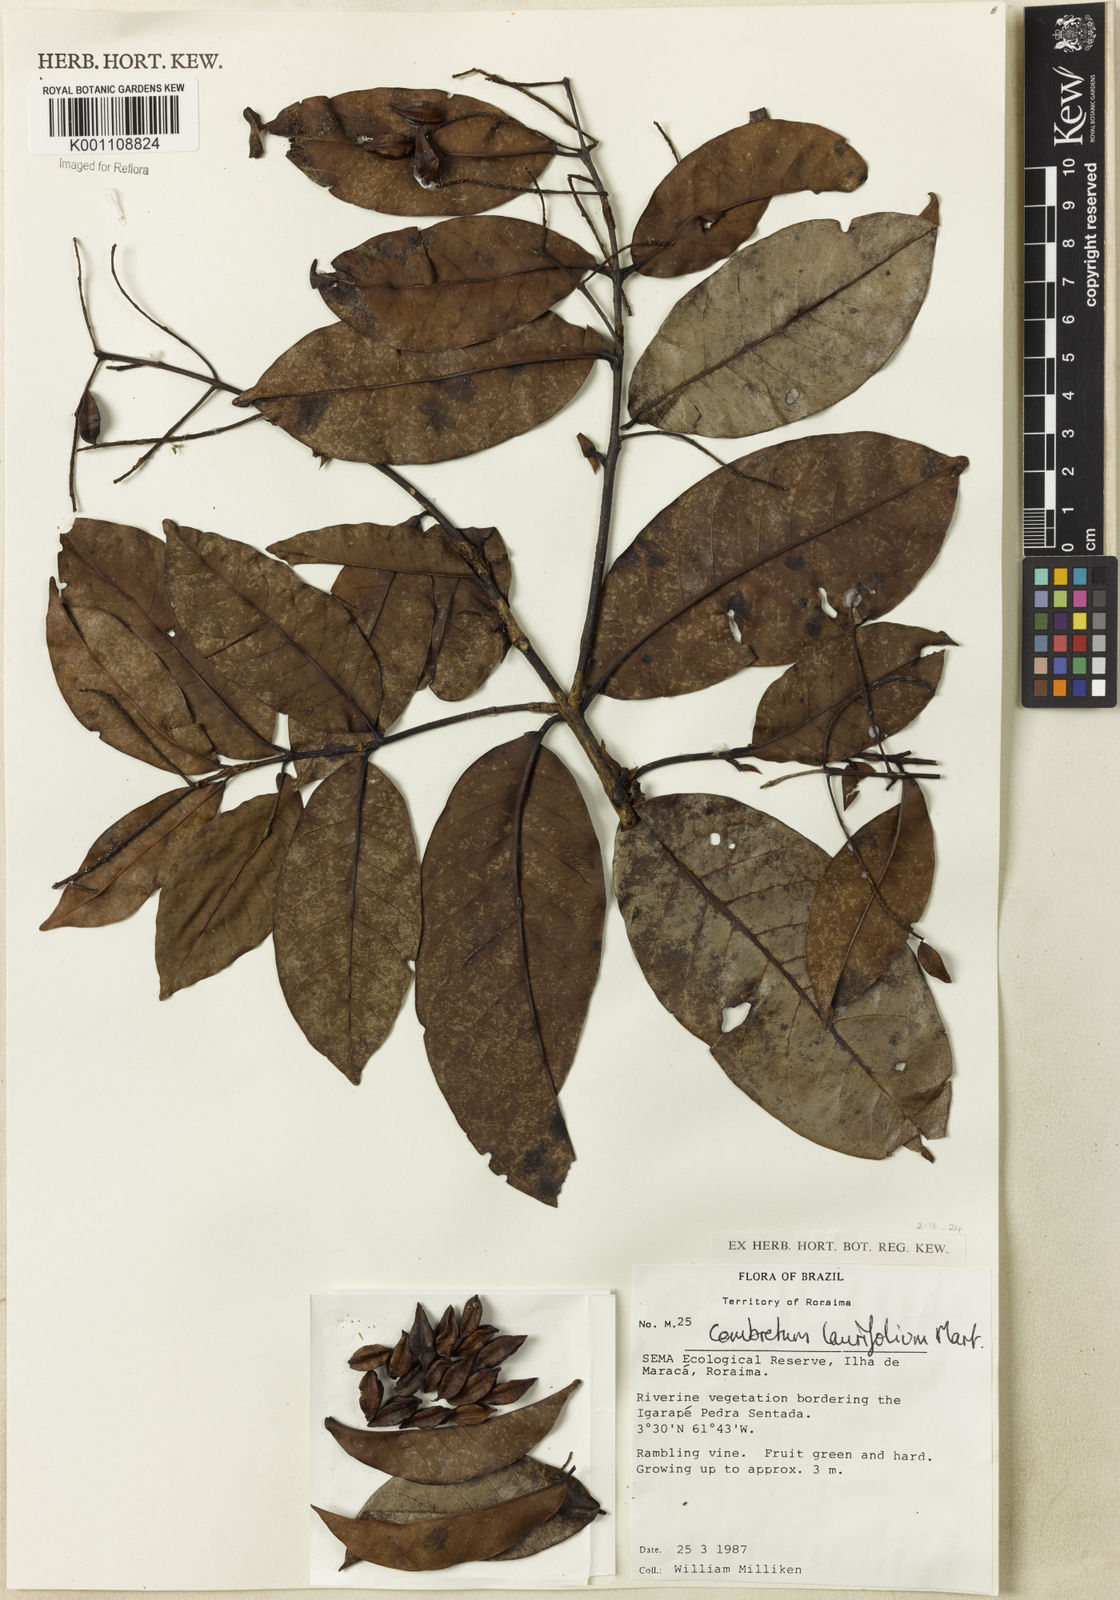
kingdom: Plantae
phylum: Tracheophyta
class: Magnoliopsida
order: Myrtales
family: Combretaceae
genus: Combretum
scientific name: Combretum pyramidatum
